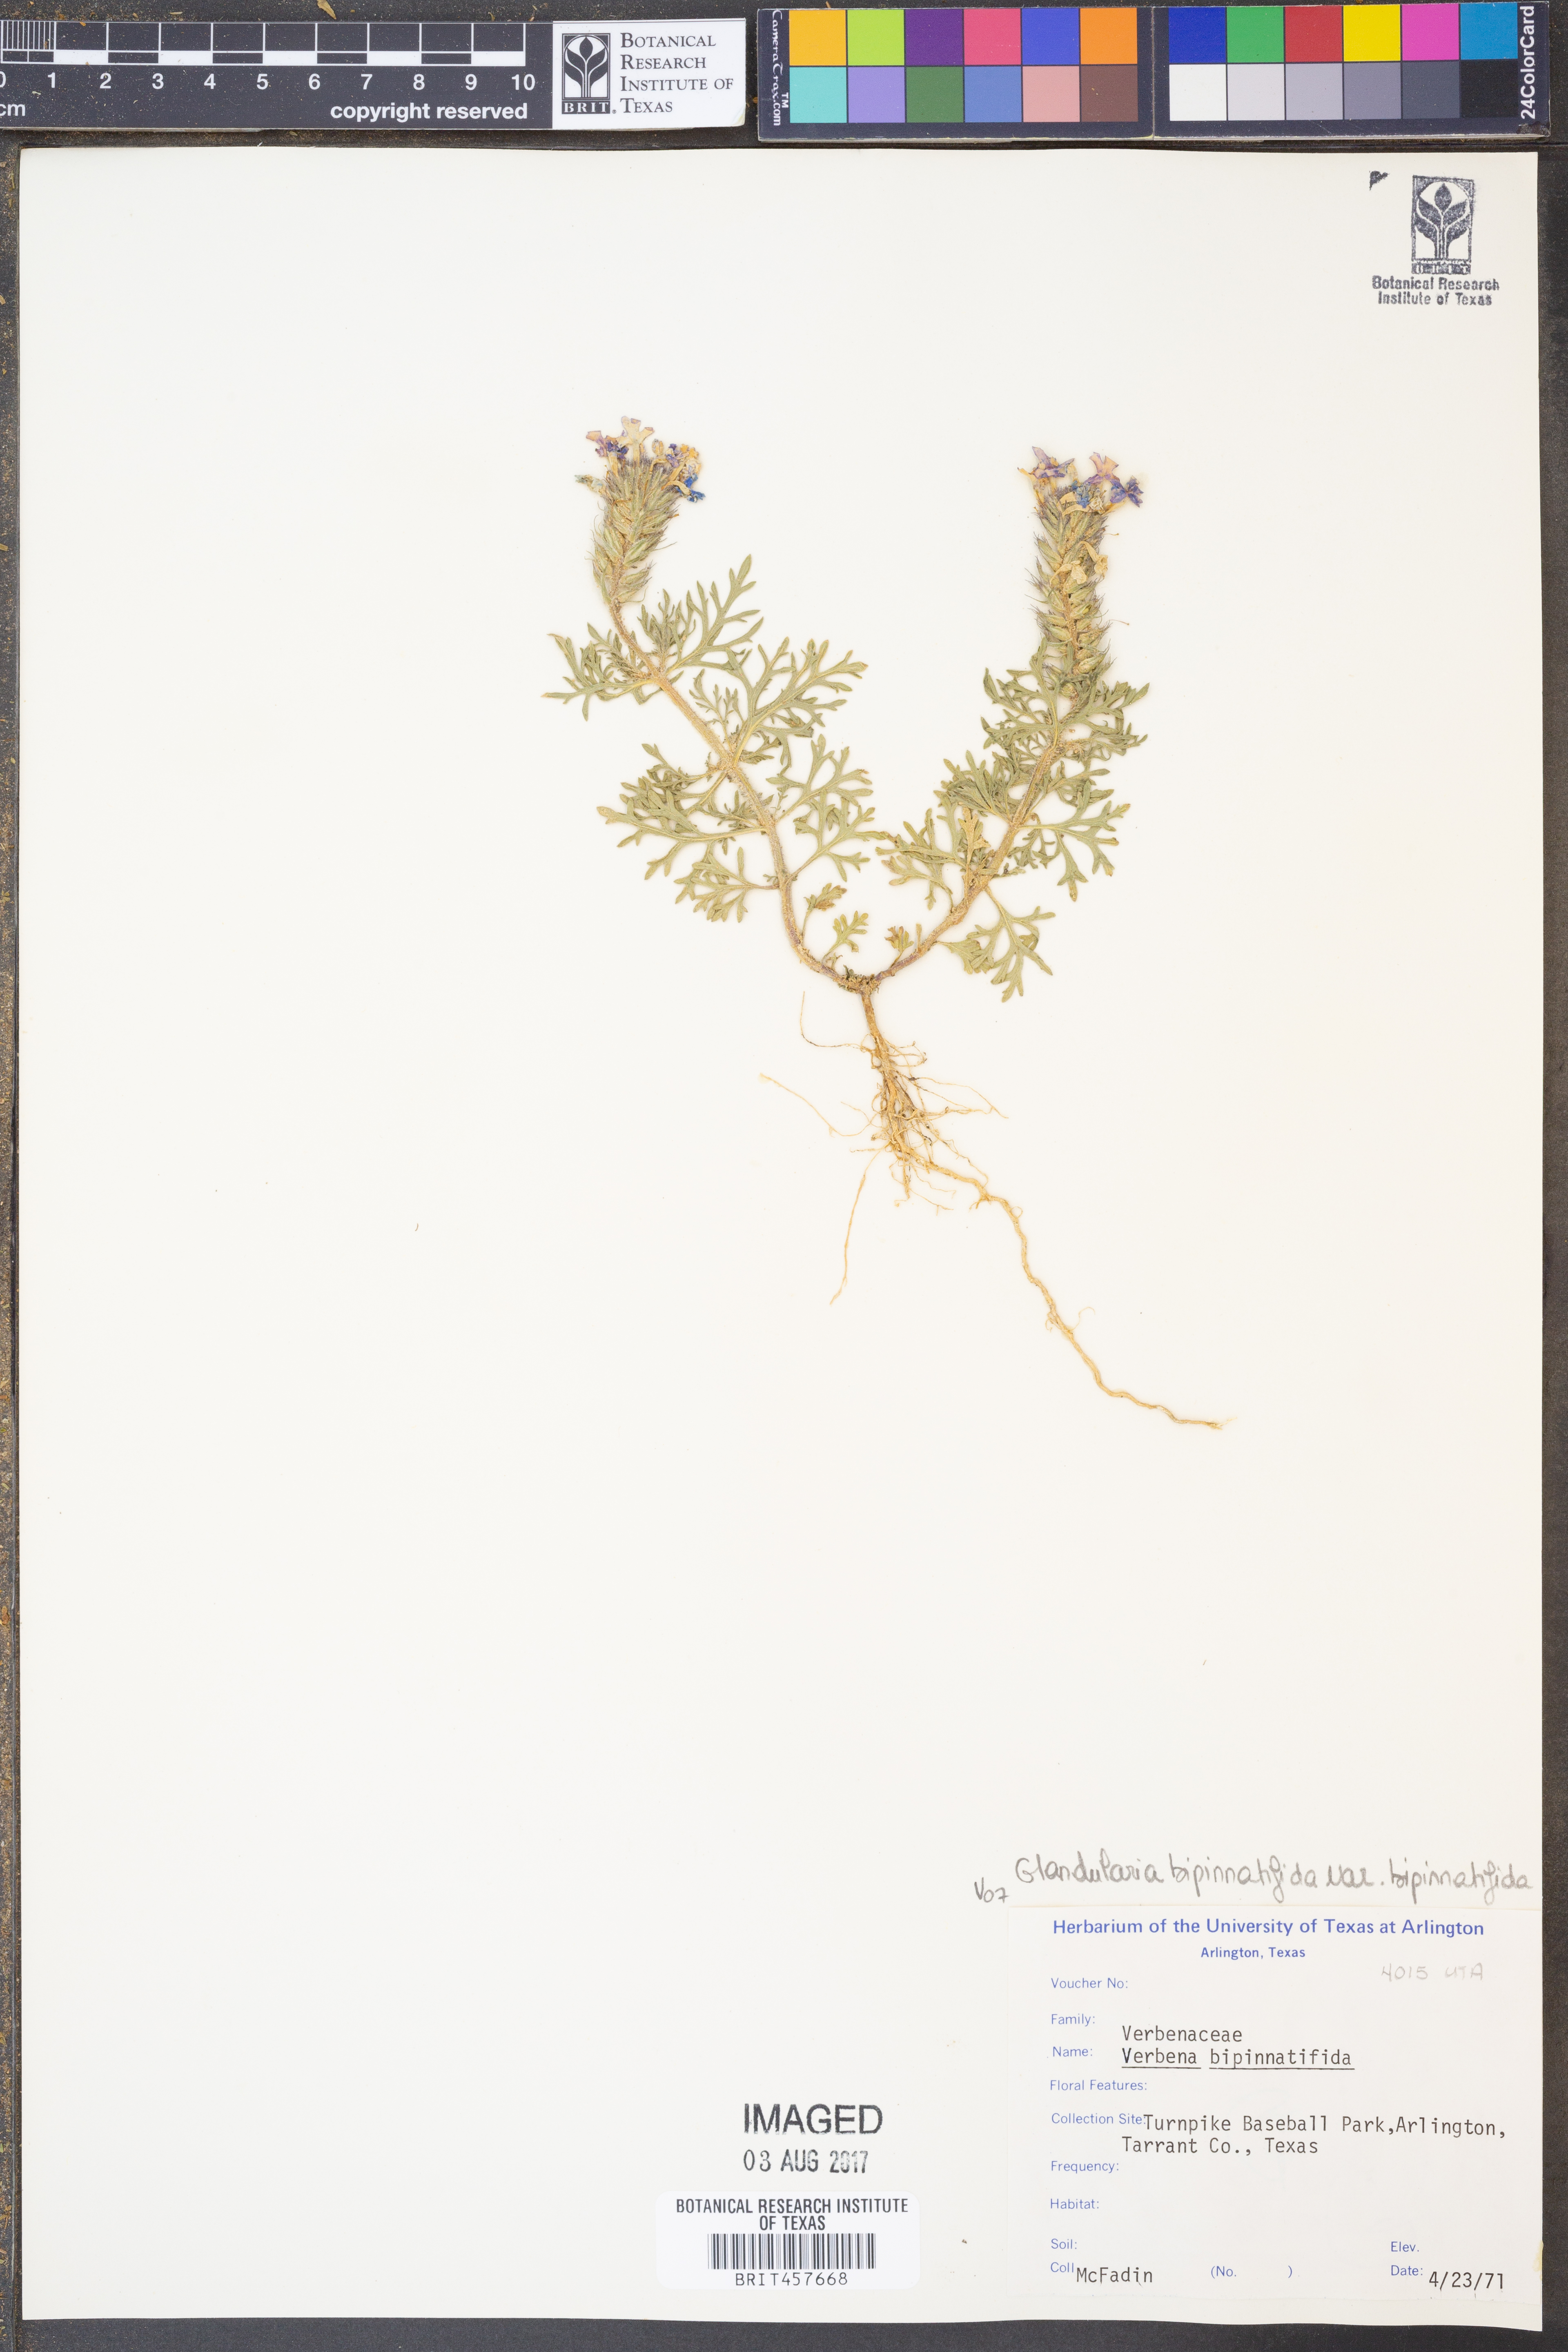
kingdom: Plantae
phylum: Tracheophyta
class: Magnoliopsida
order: Lamiales
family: Verbenaceae
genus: Verbena
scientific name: Verbena bipinnatifida
